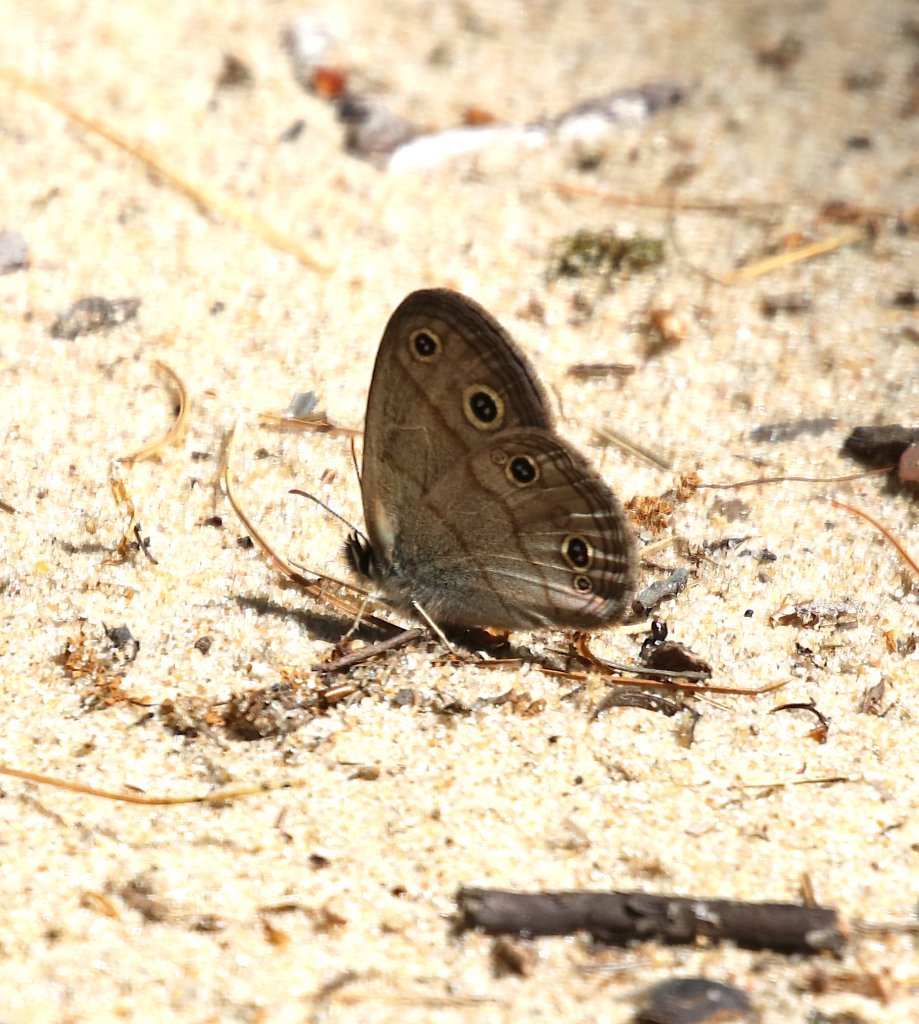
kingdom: Animalia
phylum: Arthropoda
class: Insecta
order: Lepidoptera
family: Nymphalidae
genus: Euptychia
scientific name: Euptychia cymela
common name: Little Wood Satyr
